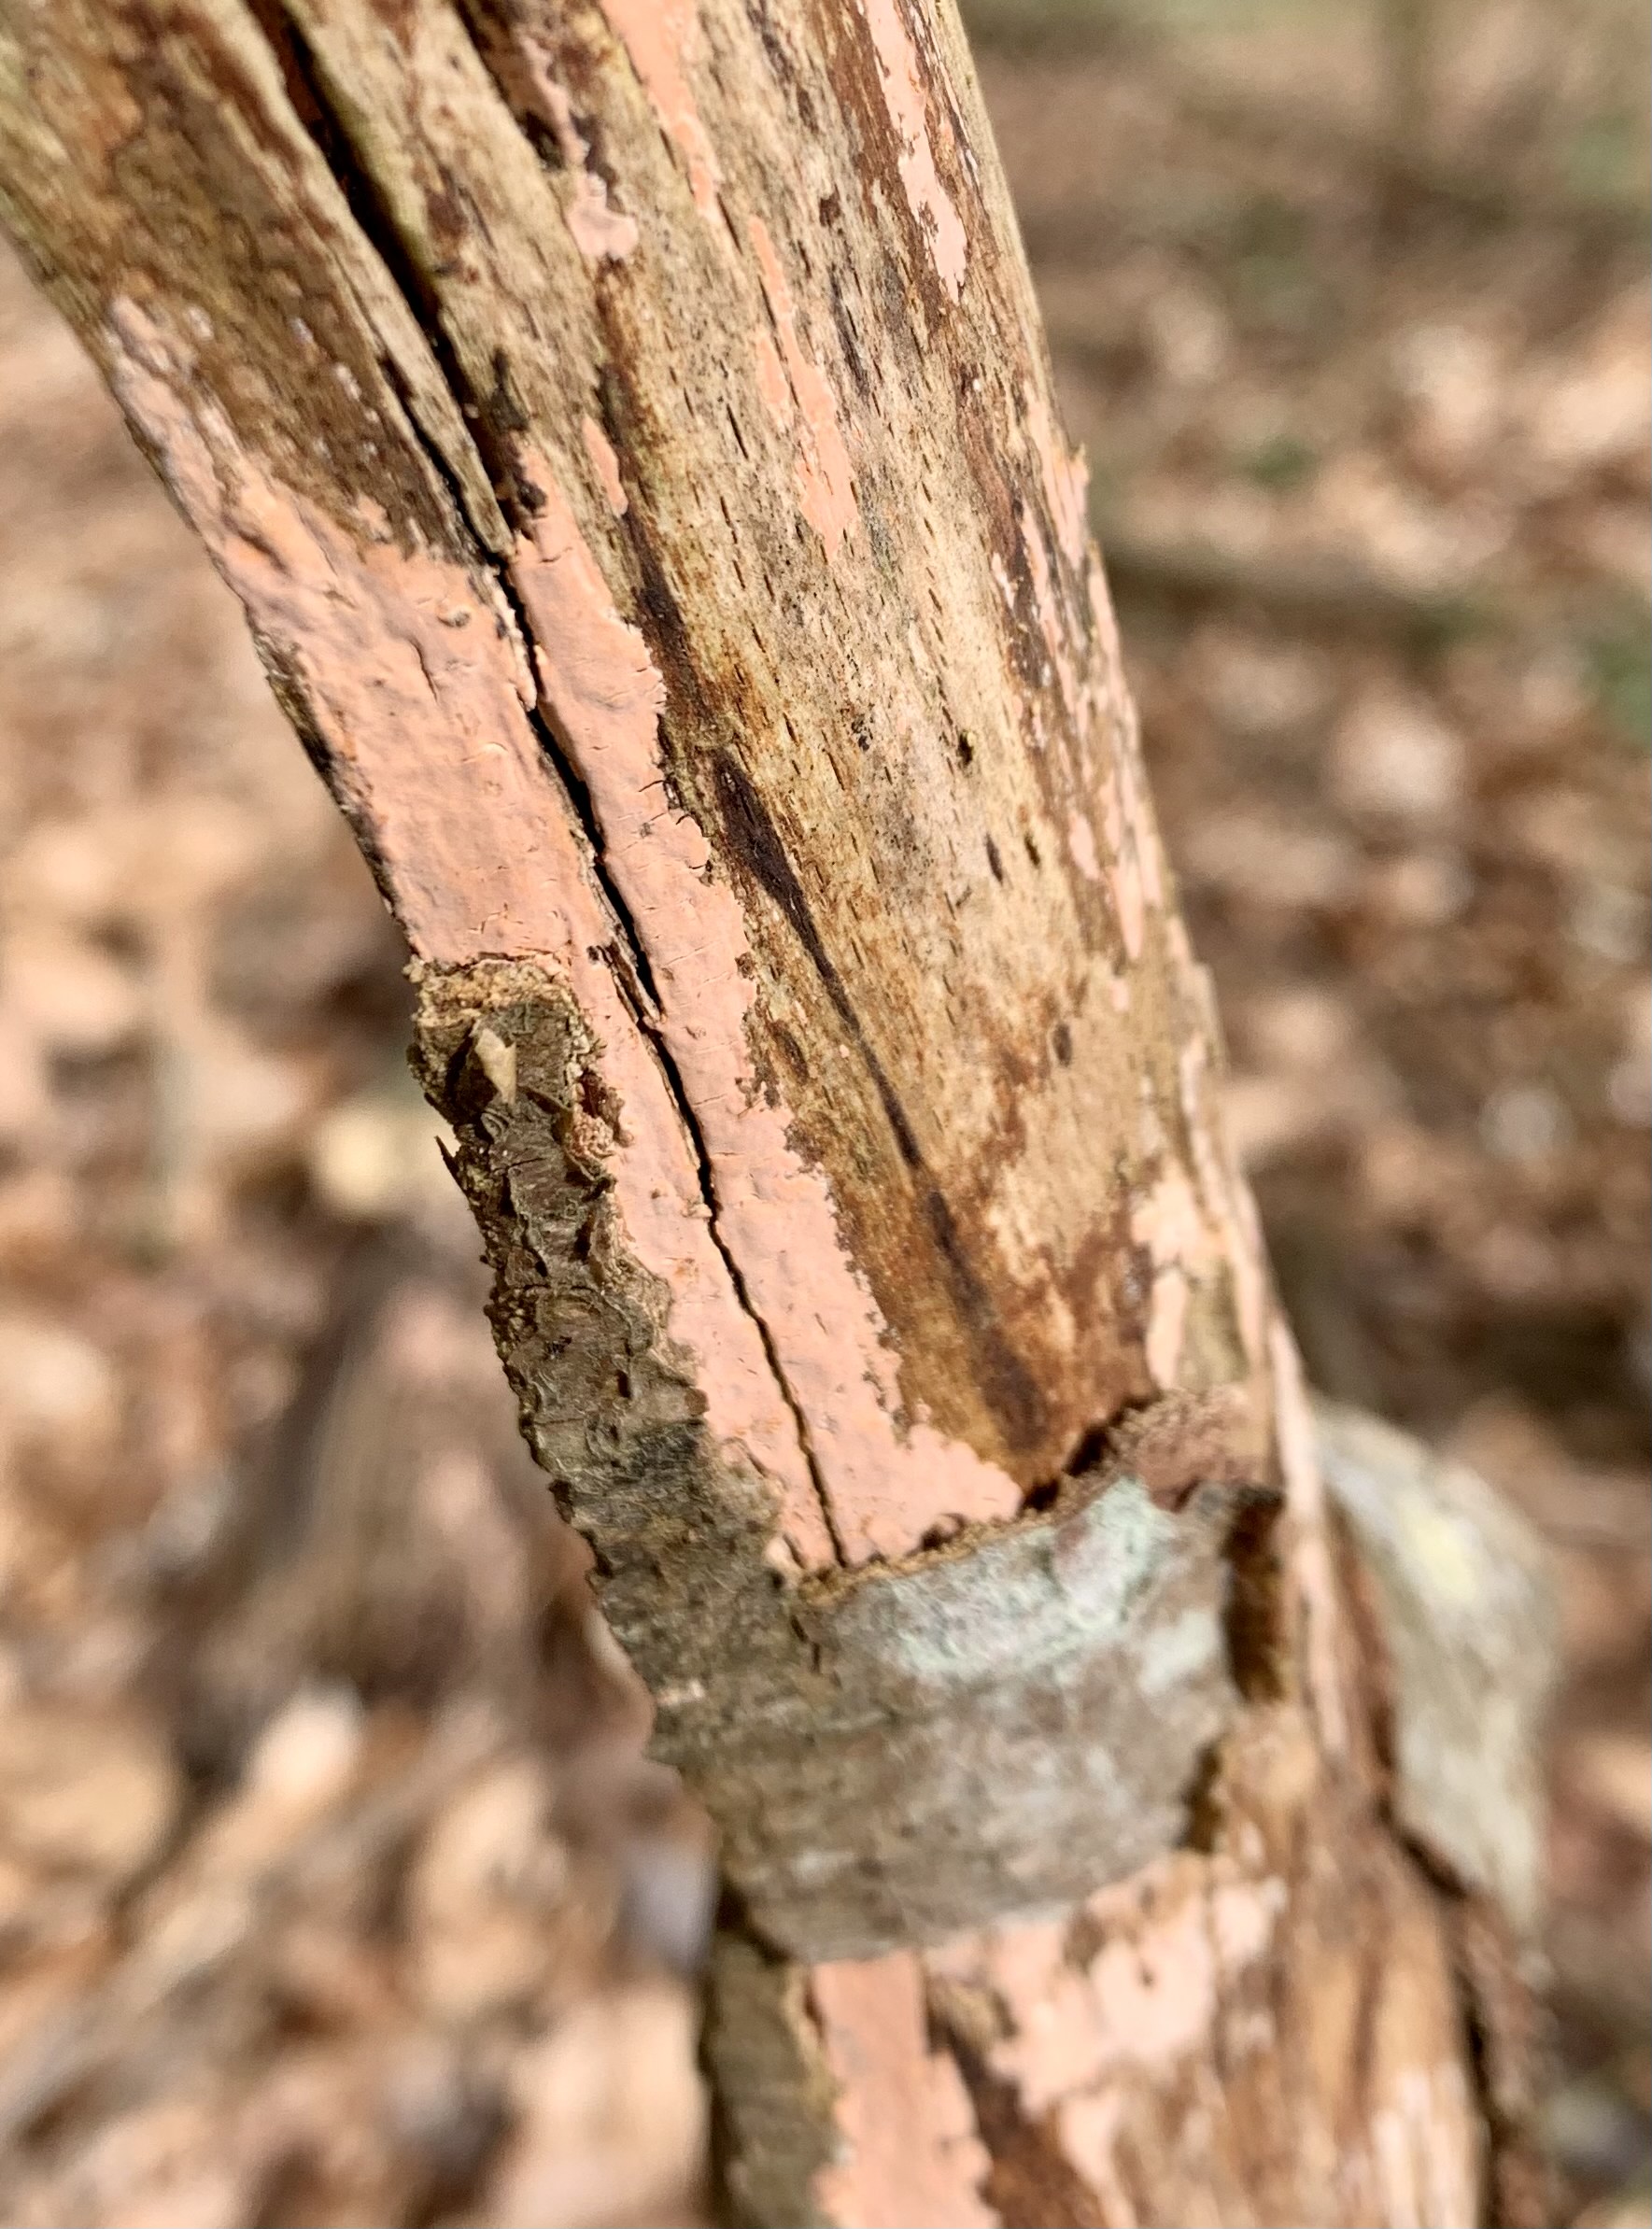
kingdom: Fungi
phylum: Basidiomycota
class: Agaricomycetes
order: Russulales
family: Peniophoraceae
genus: Peniophora
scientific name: Peniophora incarnata
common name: laksefarvet voksskind
